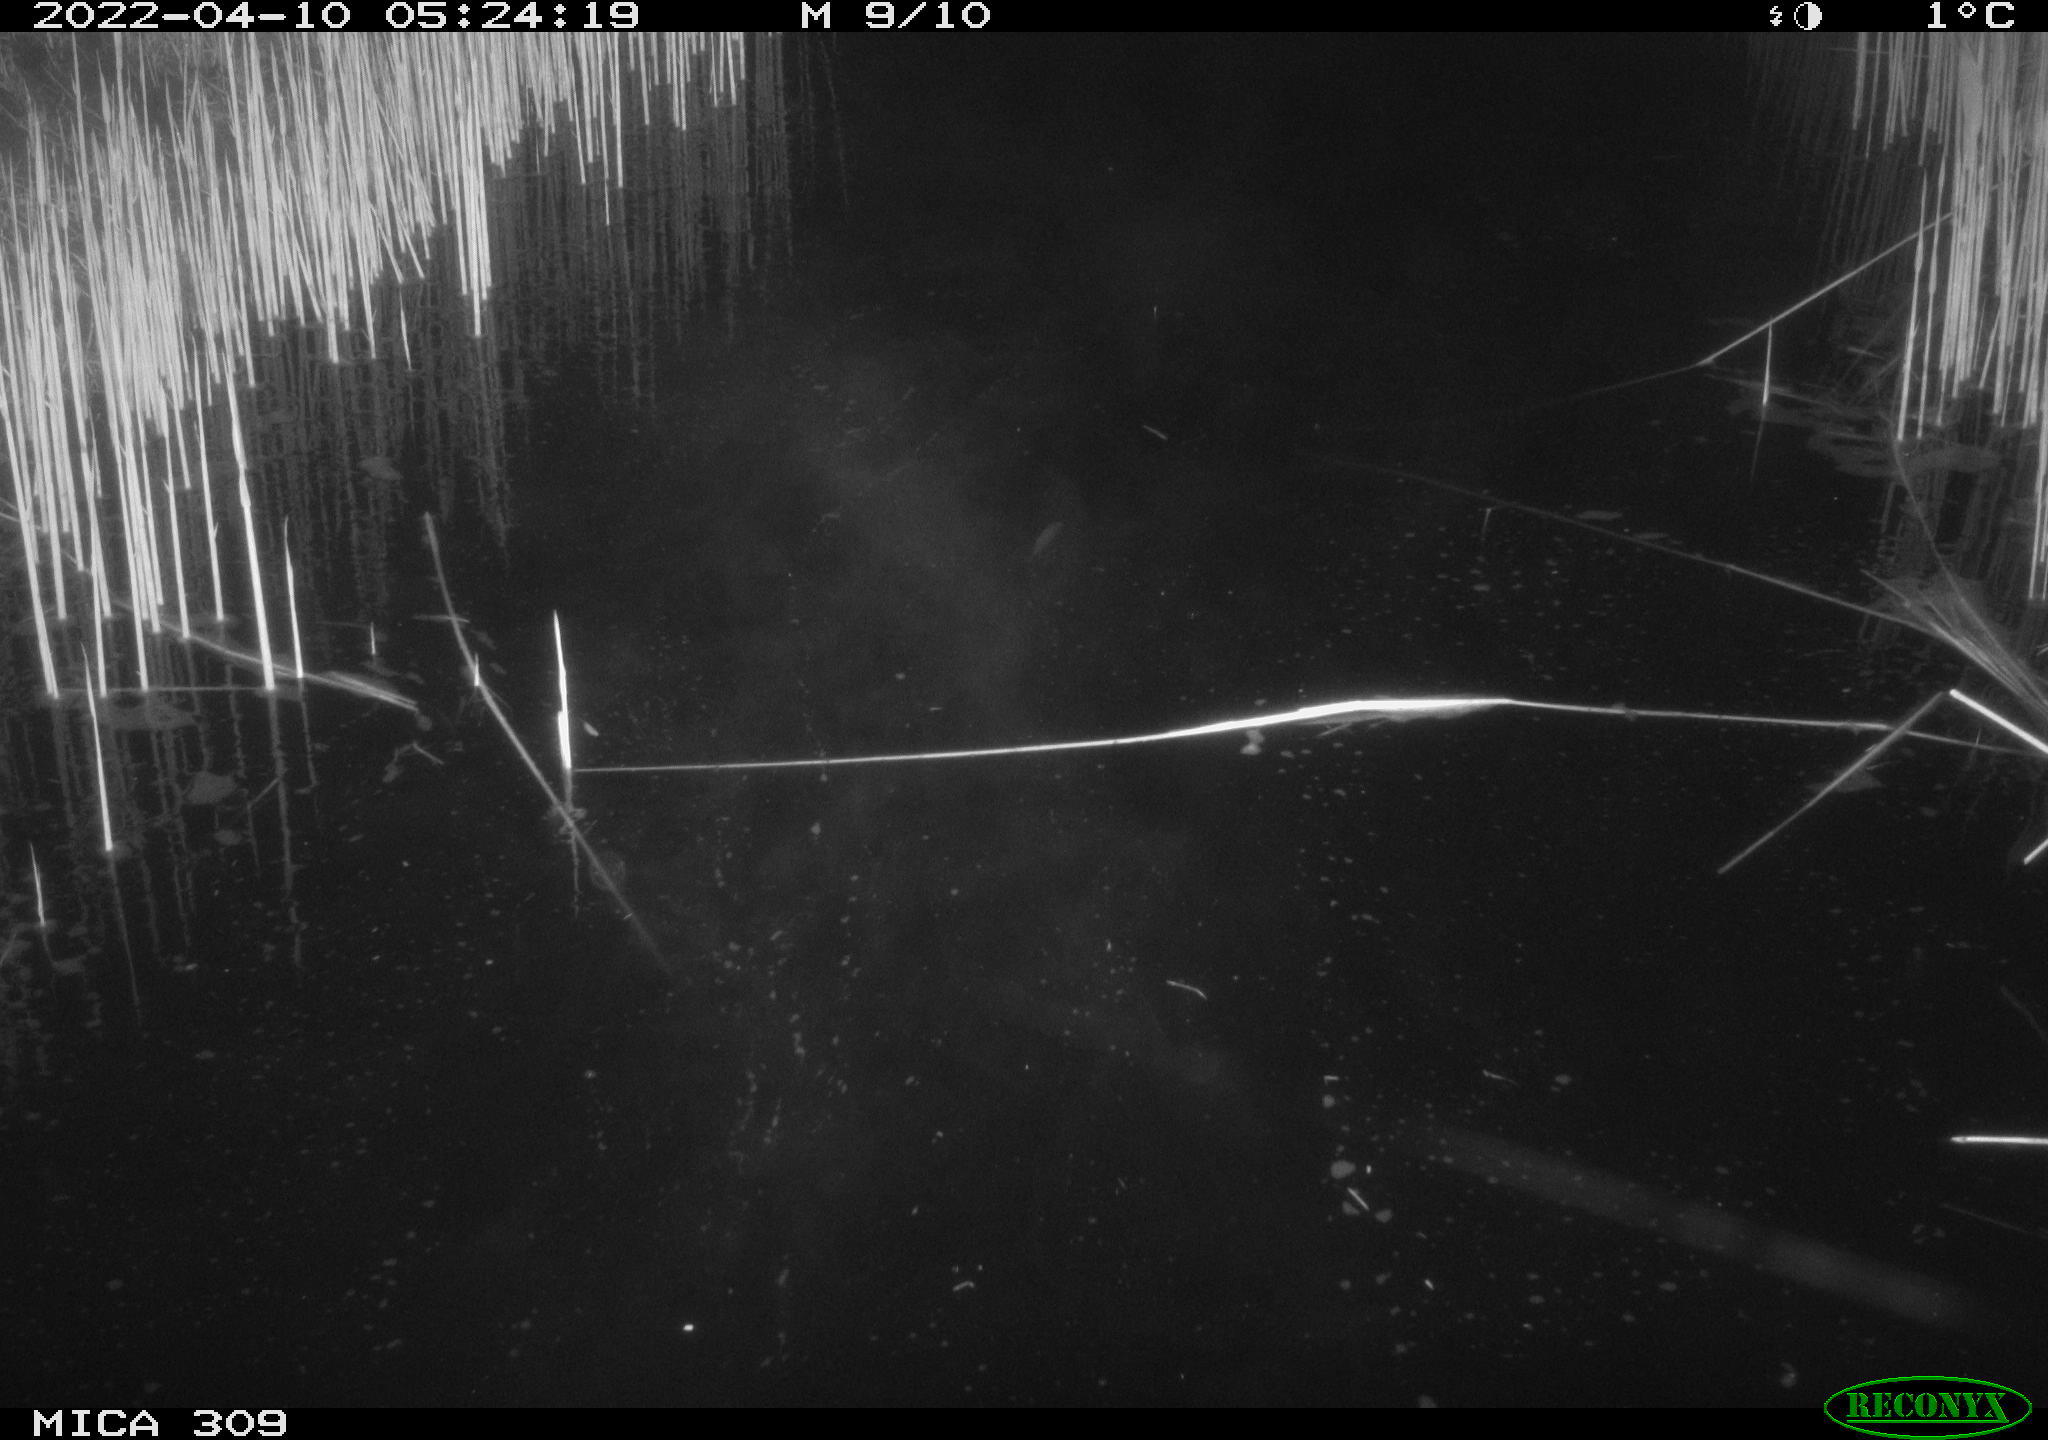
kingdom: Animalia
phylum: Chordata
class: Aves
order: Anseriformes
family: Anatidae
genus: Anas
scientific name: Anas platyrhynchos
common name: Mallard
